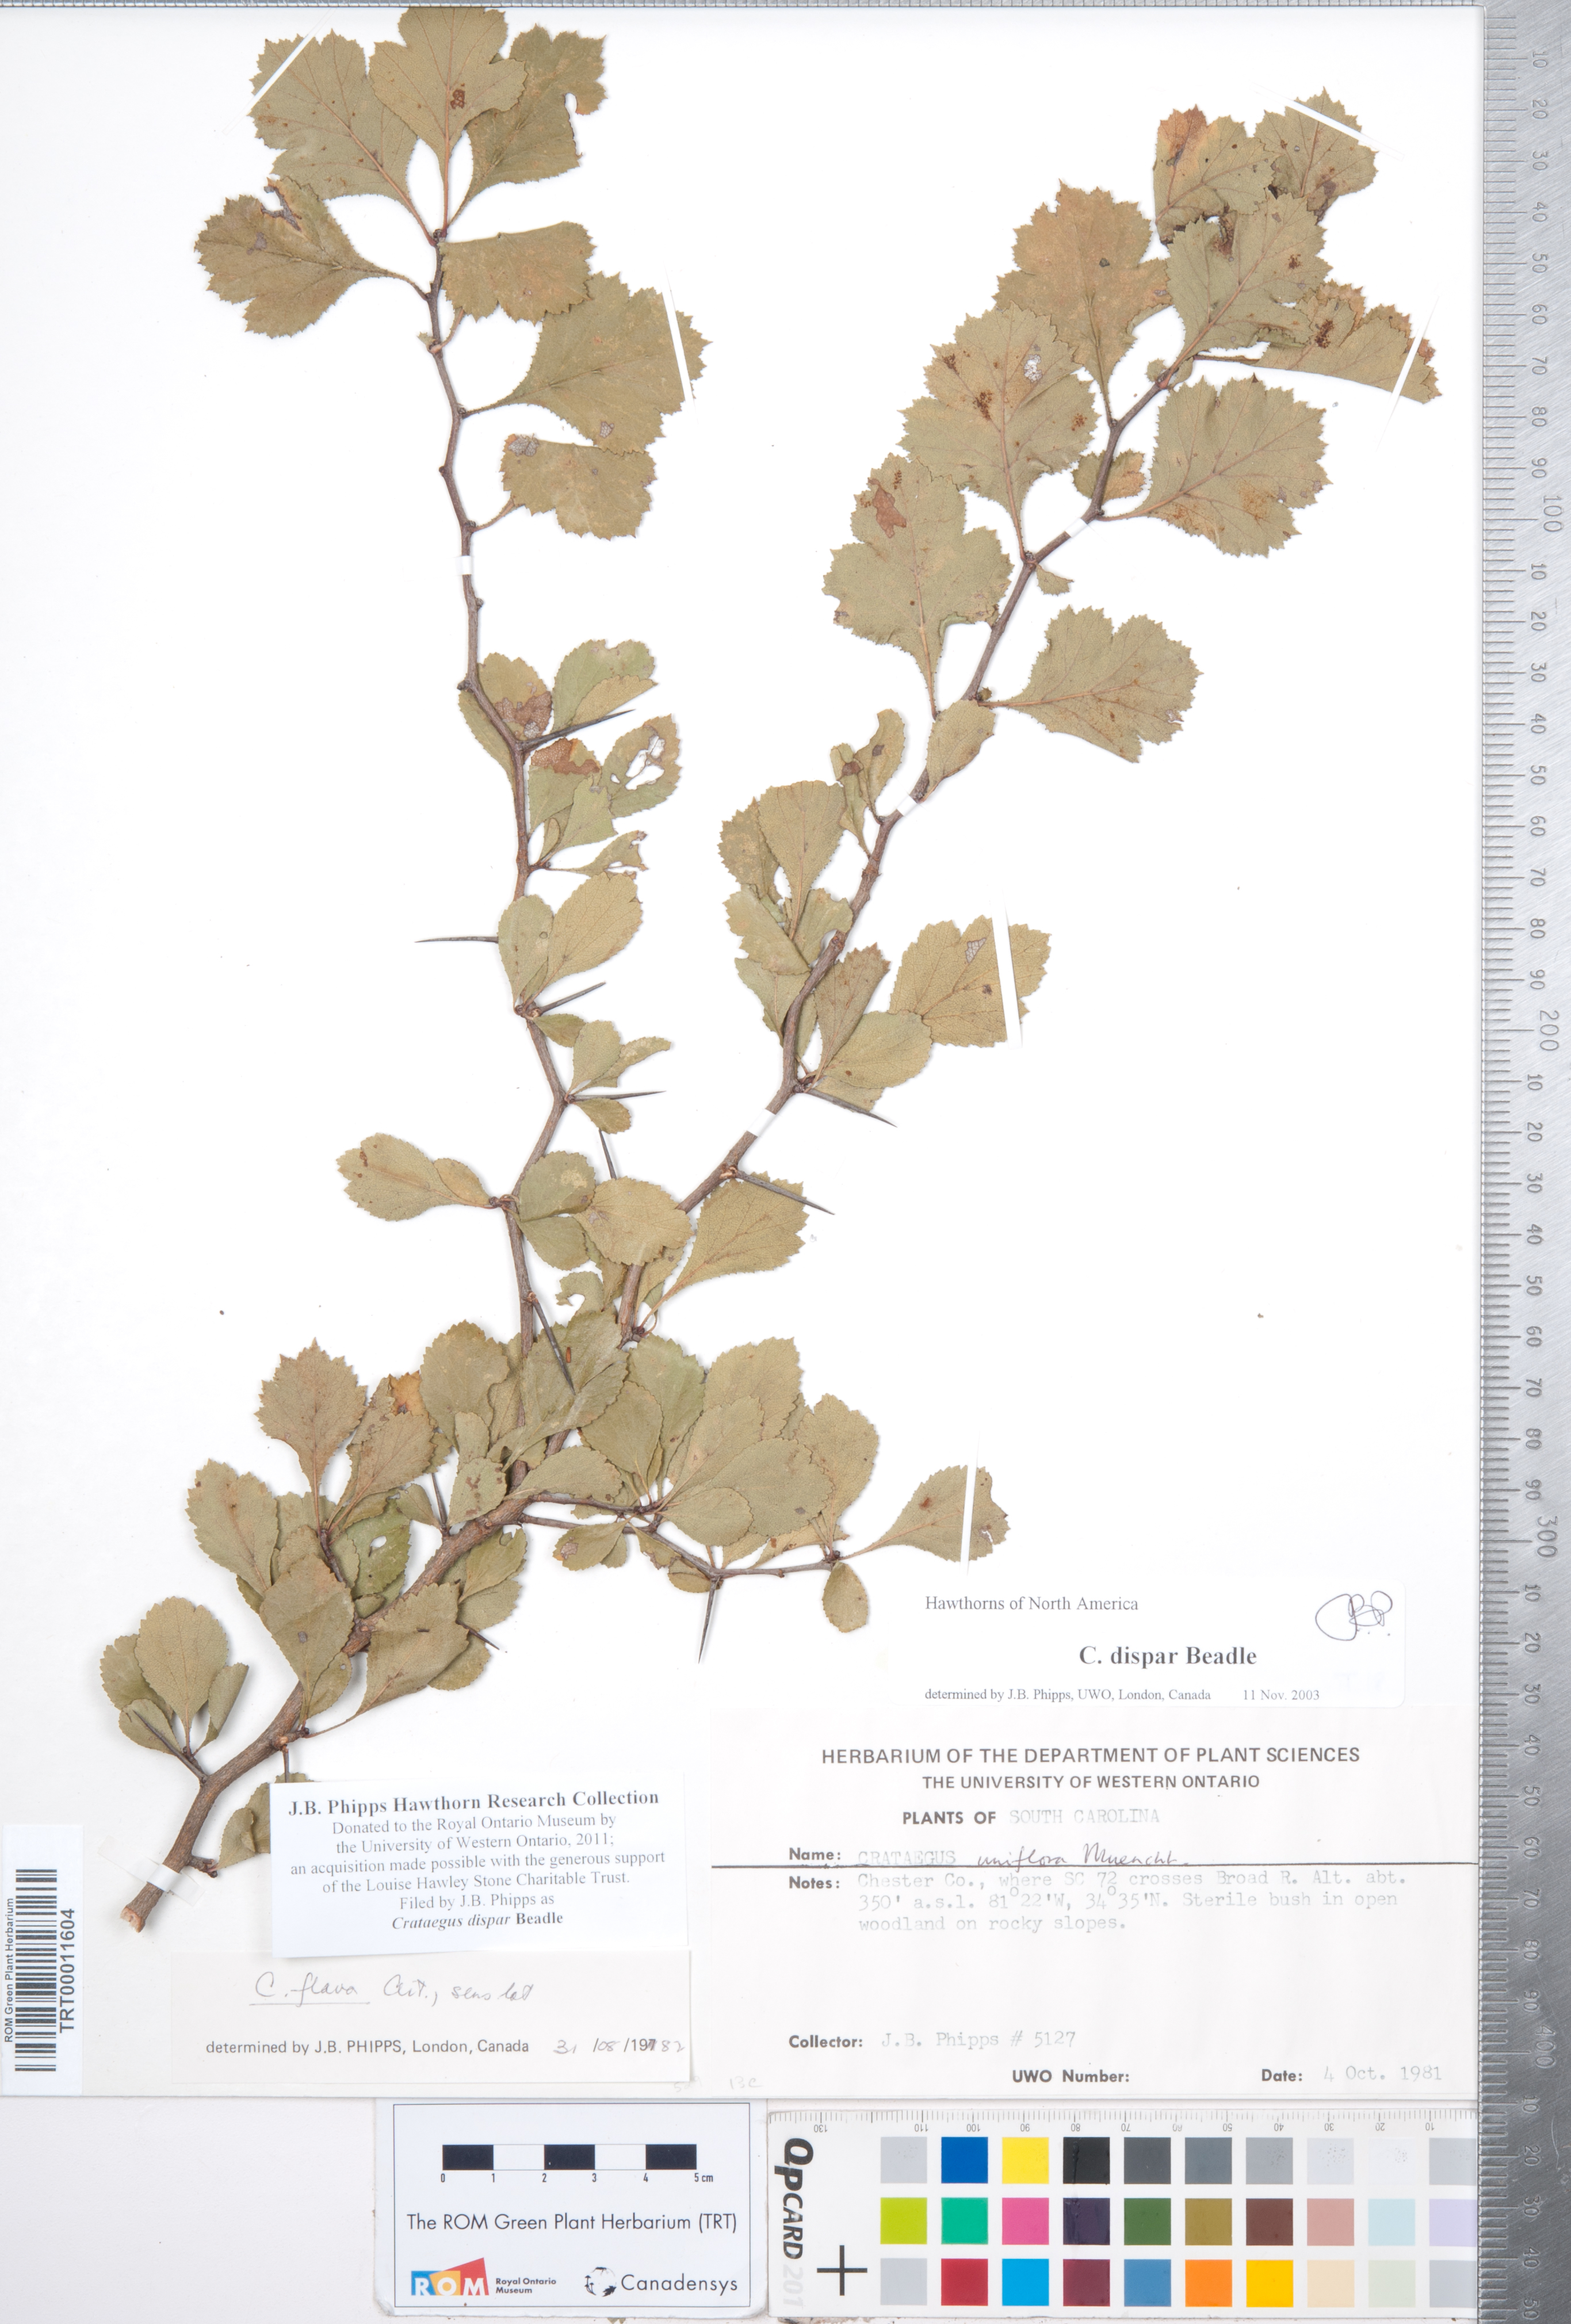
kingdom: Plantae
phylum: Tracheophyta
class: Magnoliopsida
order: Rosales
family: Rosaceae
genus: Crataegus
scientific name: Crataegus dispar
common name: Aiken hawthorn
